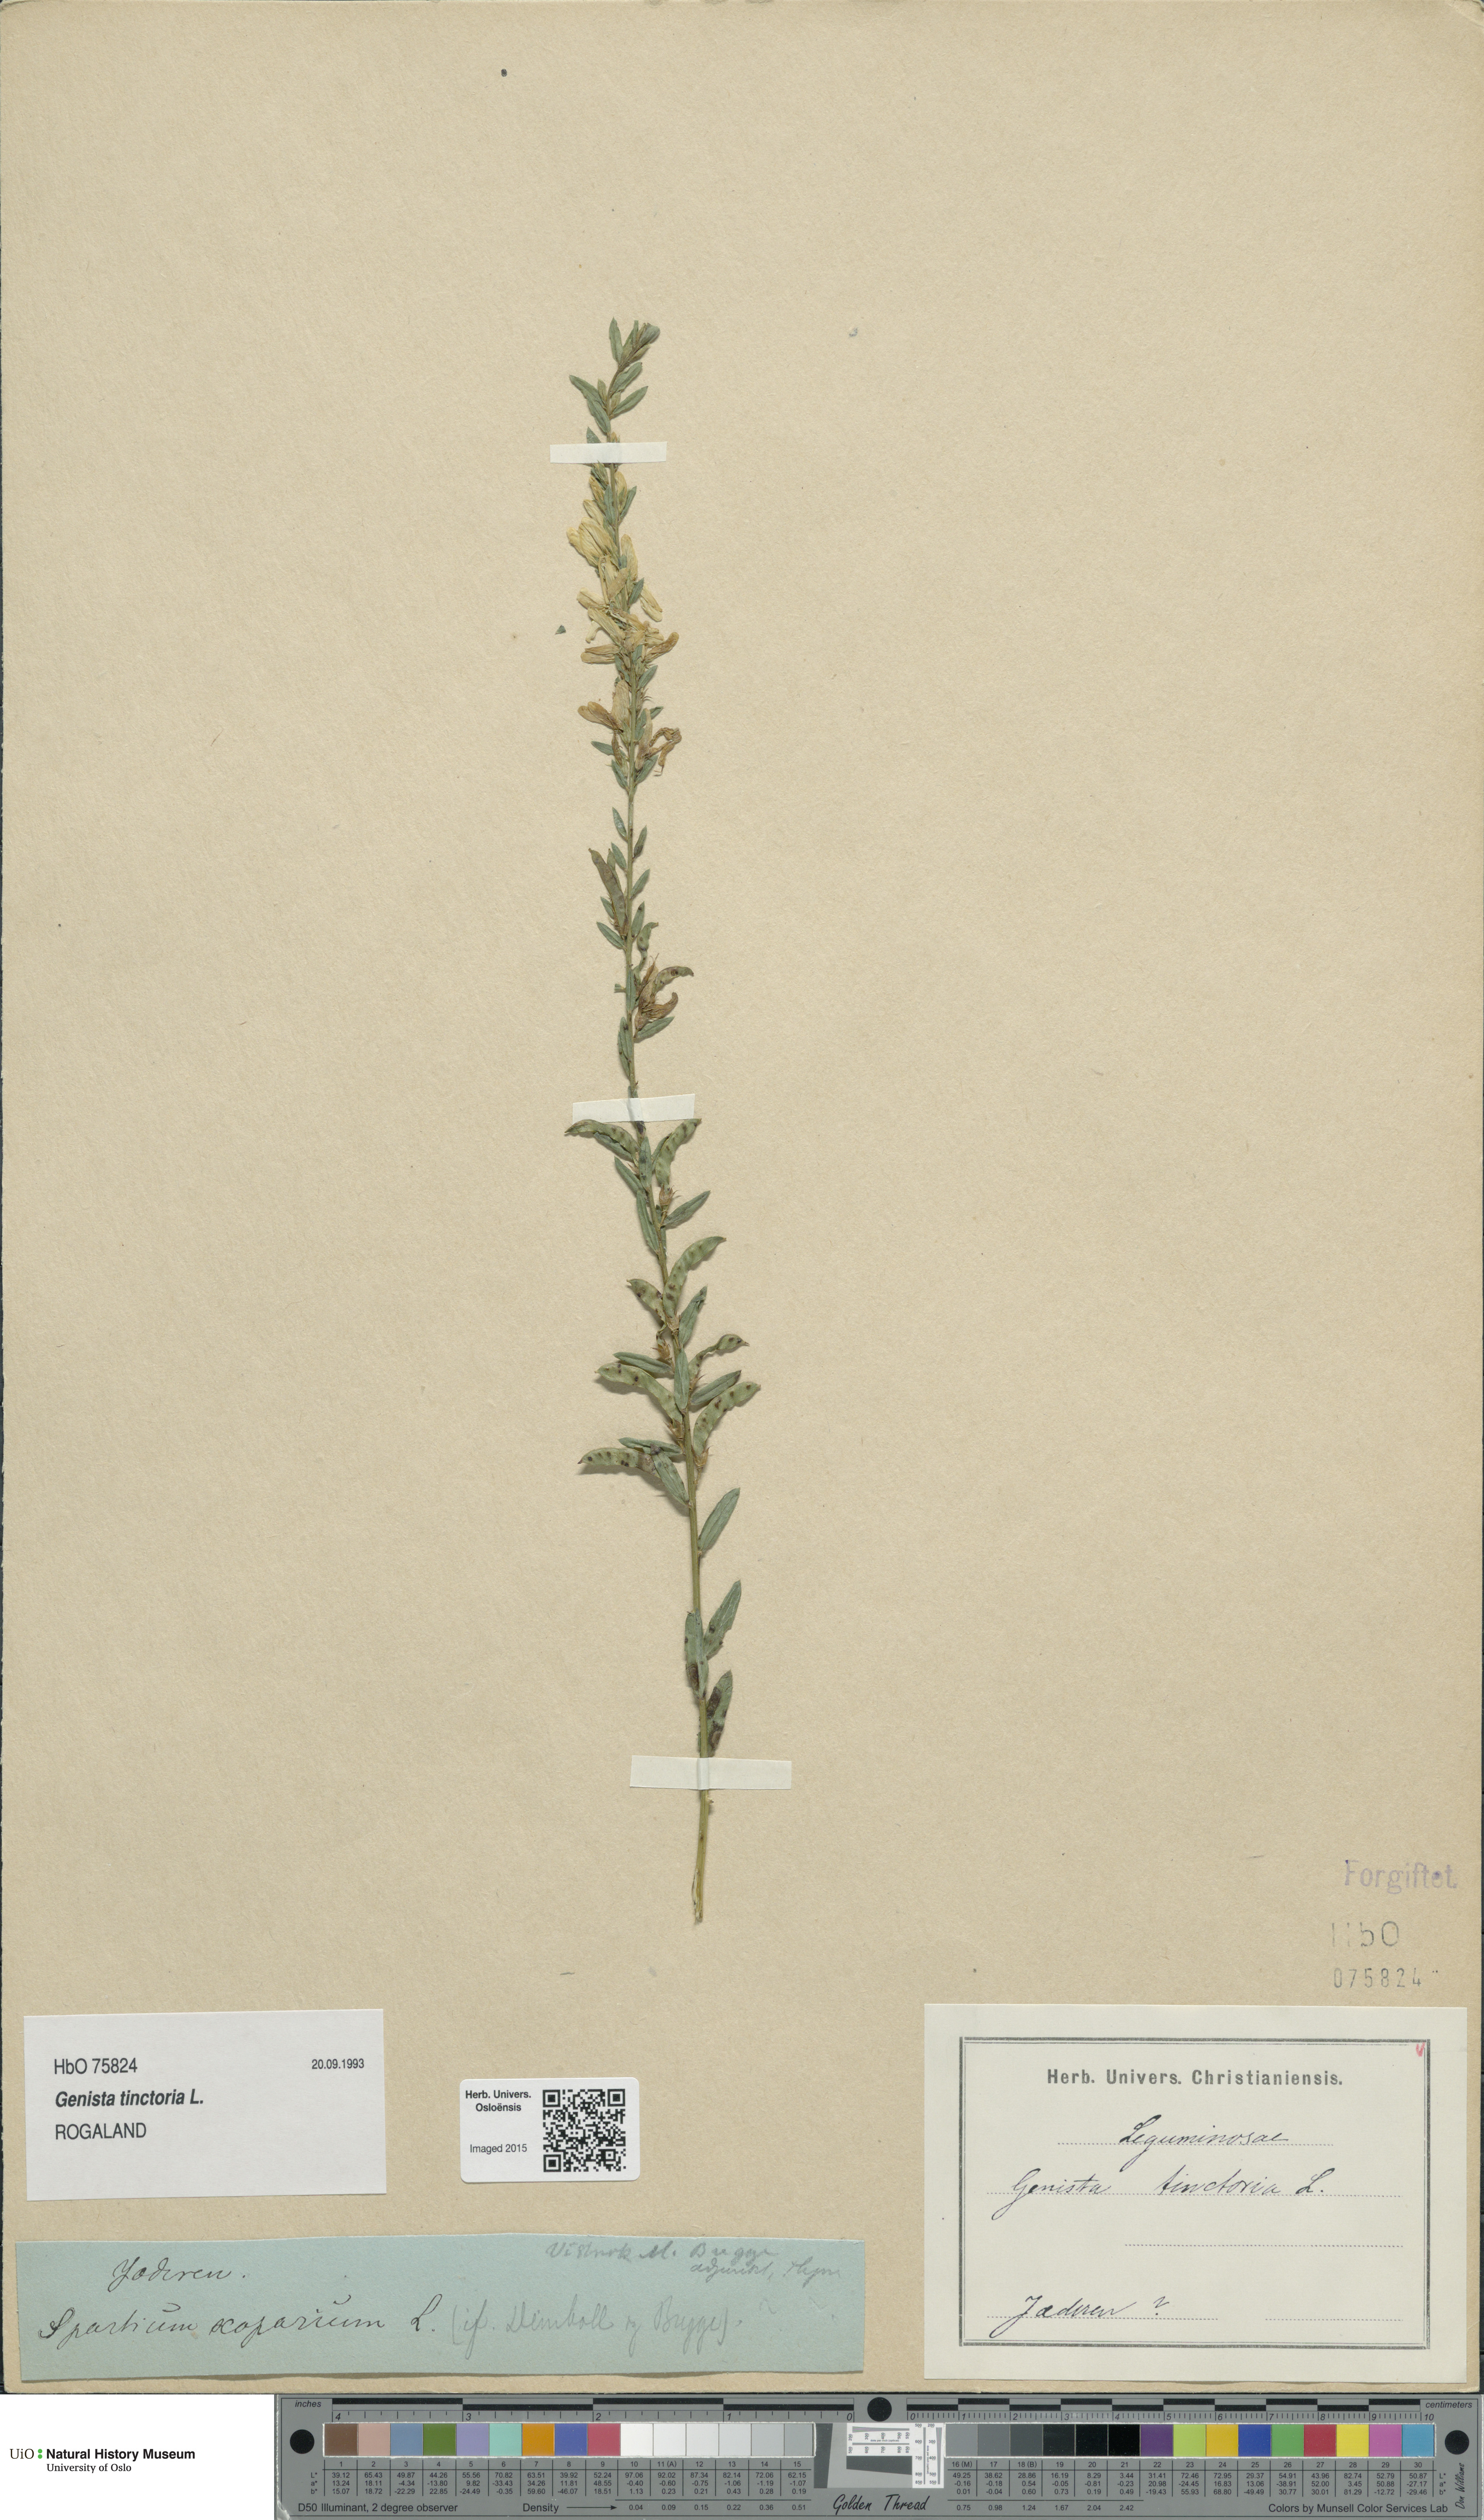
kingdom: Plantae
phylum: Tracheophyta
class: Magnoliopsida
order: Fabales
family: Fabaceae
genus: Genista
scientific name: Genista tinctoria
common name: Dyer's greenweed
